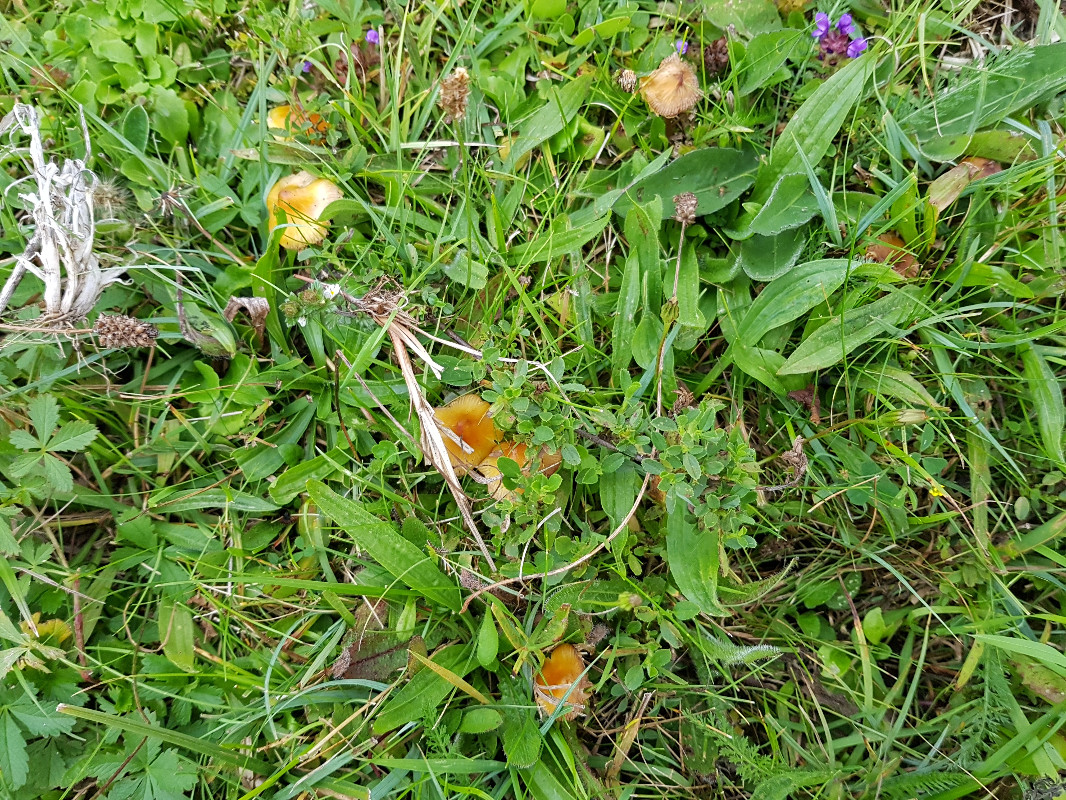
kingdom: Fungi
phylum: Basidiomycota
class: Agaricomycetes
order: Agaricales
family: Hygrophoraceae
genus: Hygrocybe
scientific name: Hygrocybe acutoconica
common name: spidspuklet vokshat
